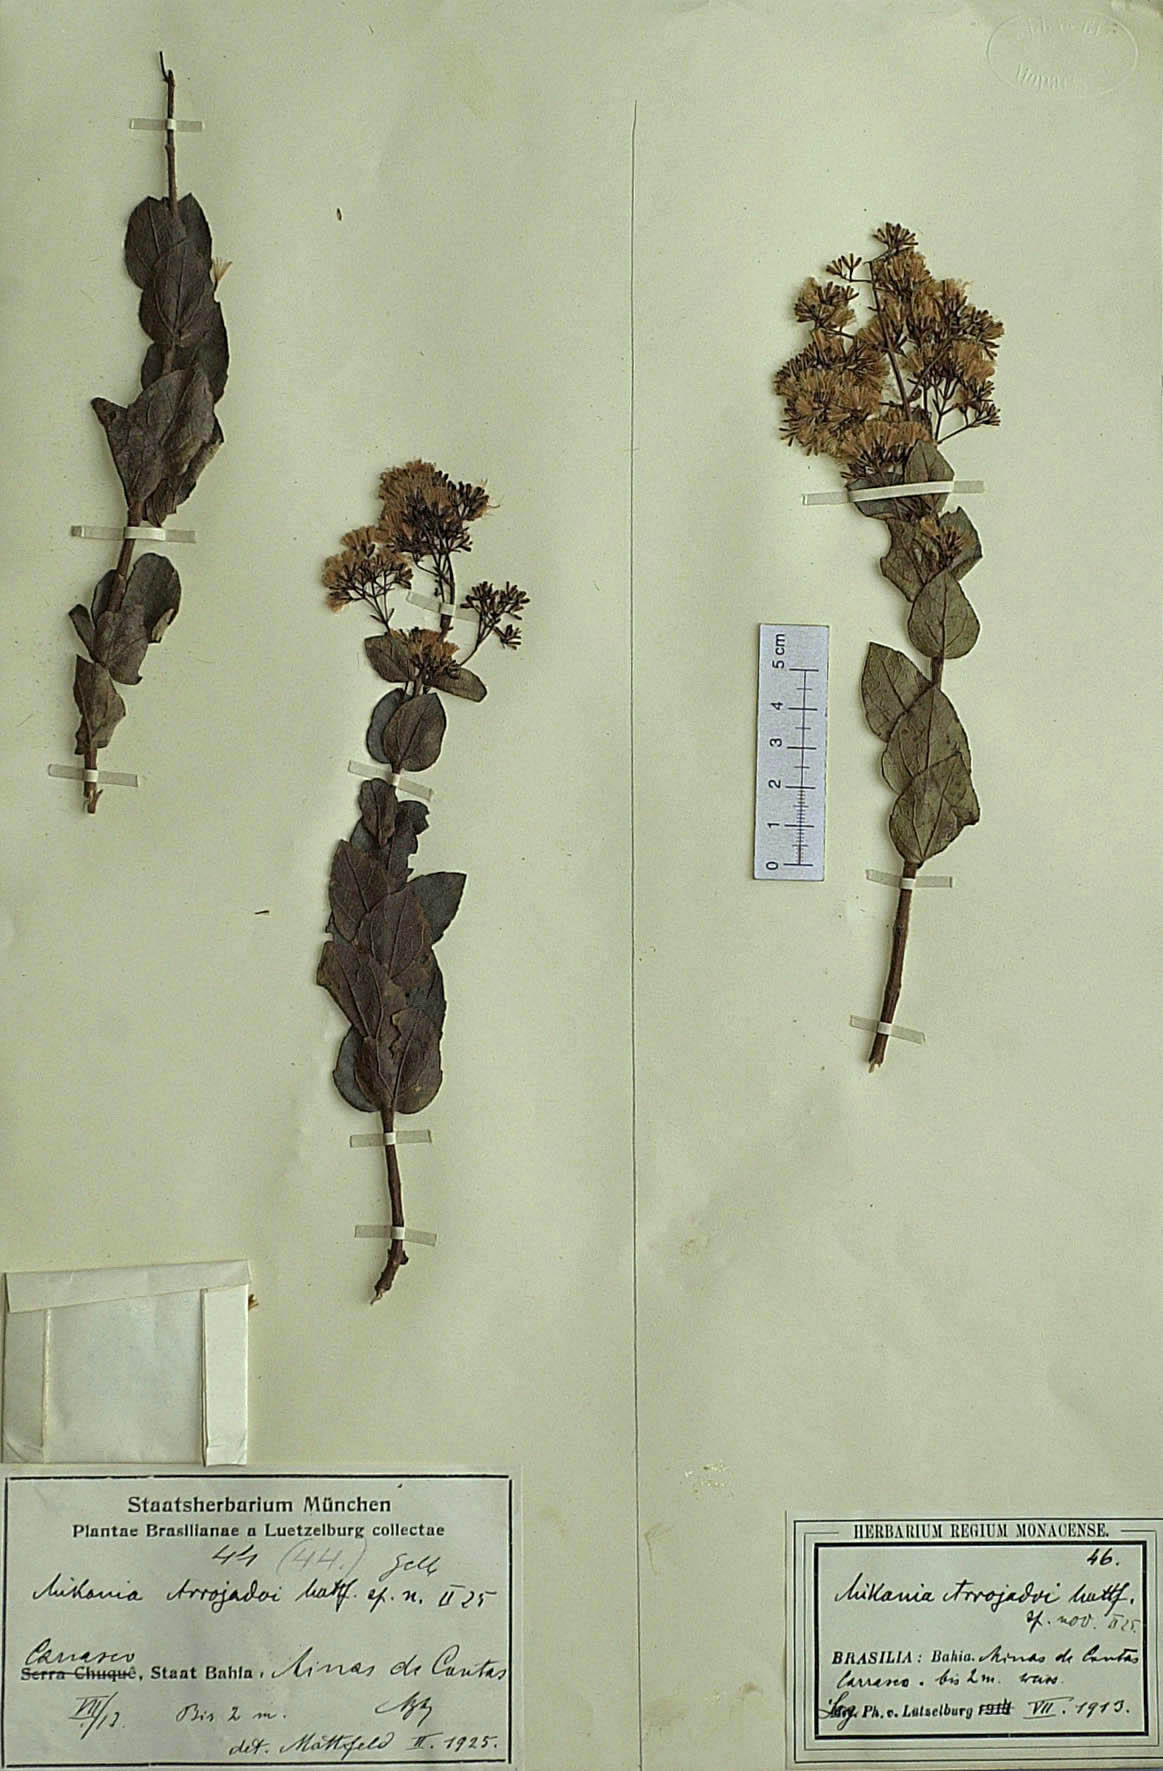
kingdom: Plantae
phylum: Tracheophyta
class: Magnoliopsida
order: Asterales
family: Asteraceae
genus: Mikania
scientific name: Mikania arrojadoi
